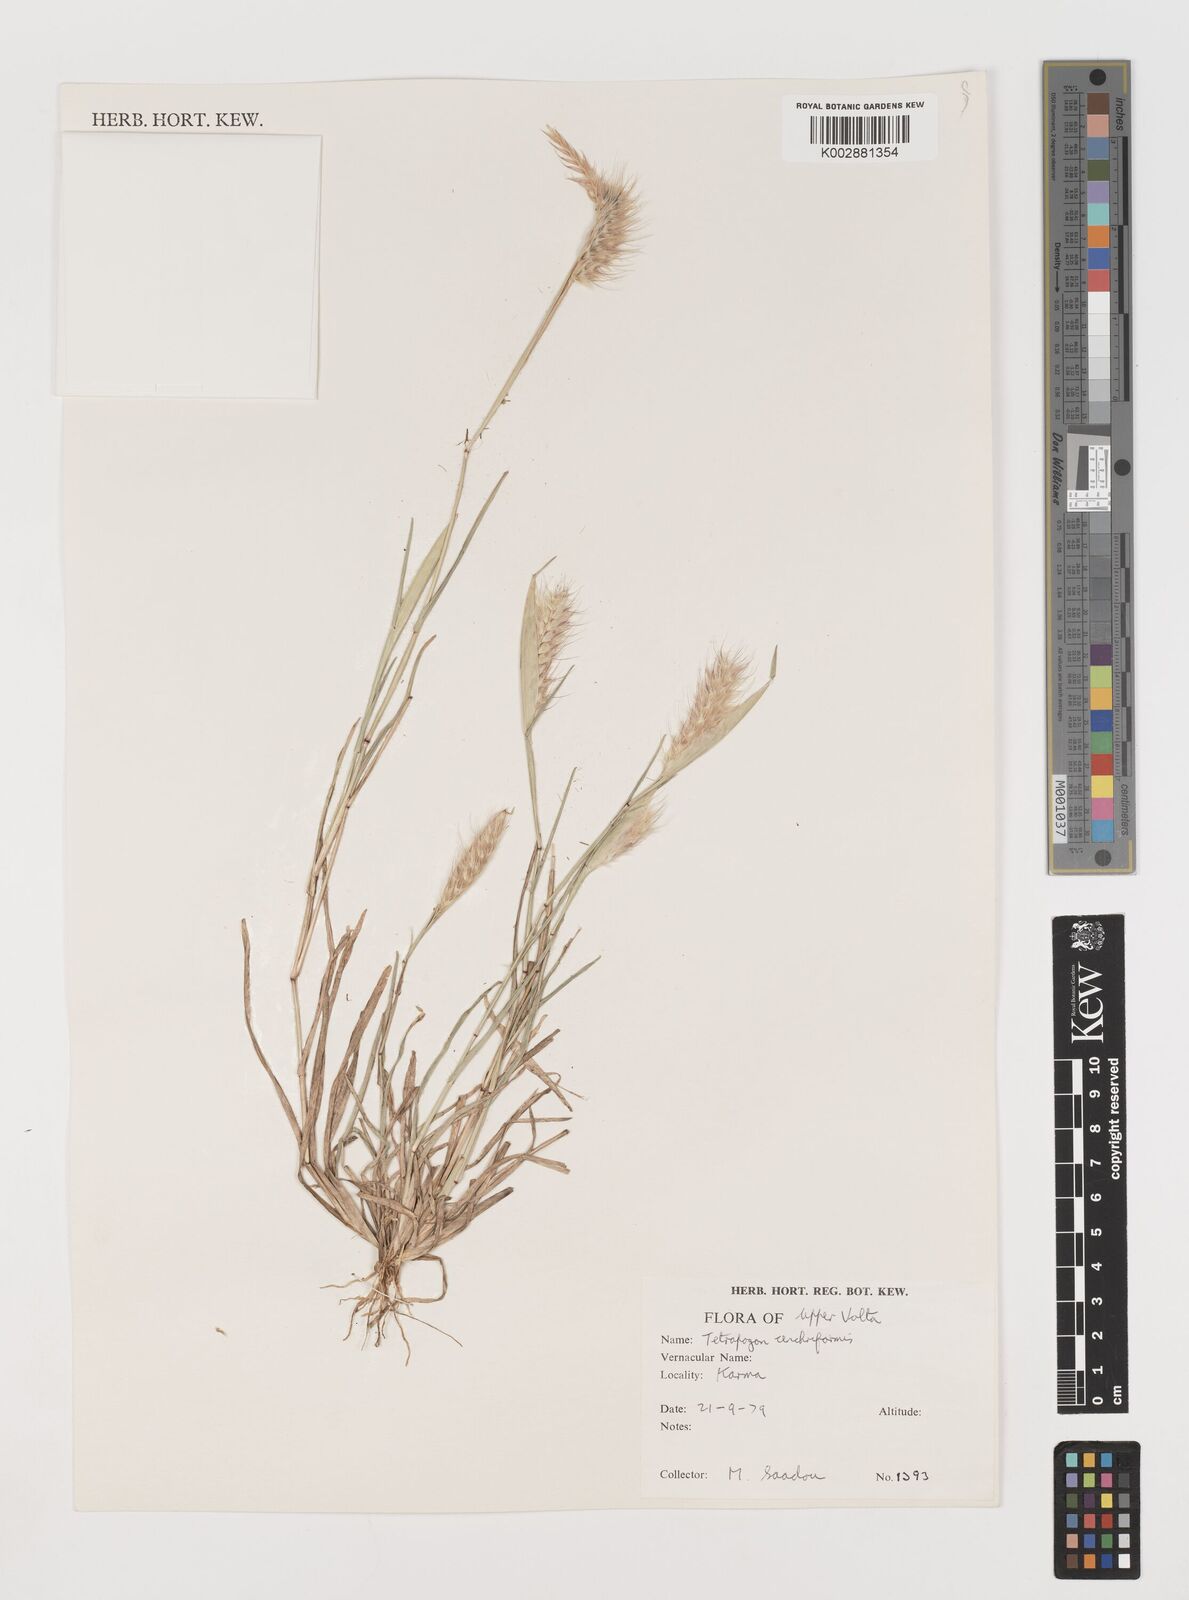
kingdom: Plantae
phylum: Tracheophyta
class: Liliopsida
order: Poales
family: Poaceae
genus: Tetrapogon
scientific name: Tetrapogon cenchriformis
